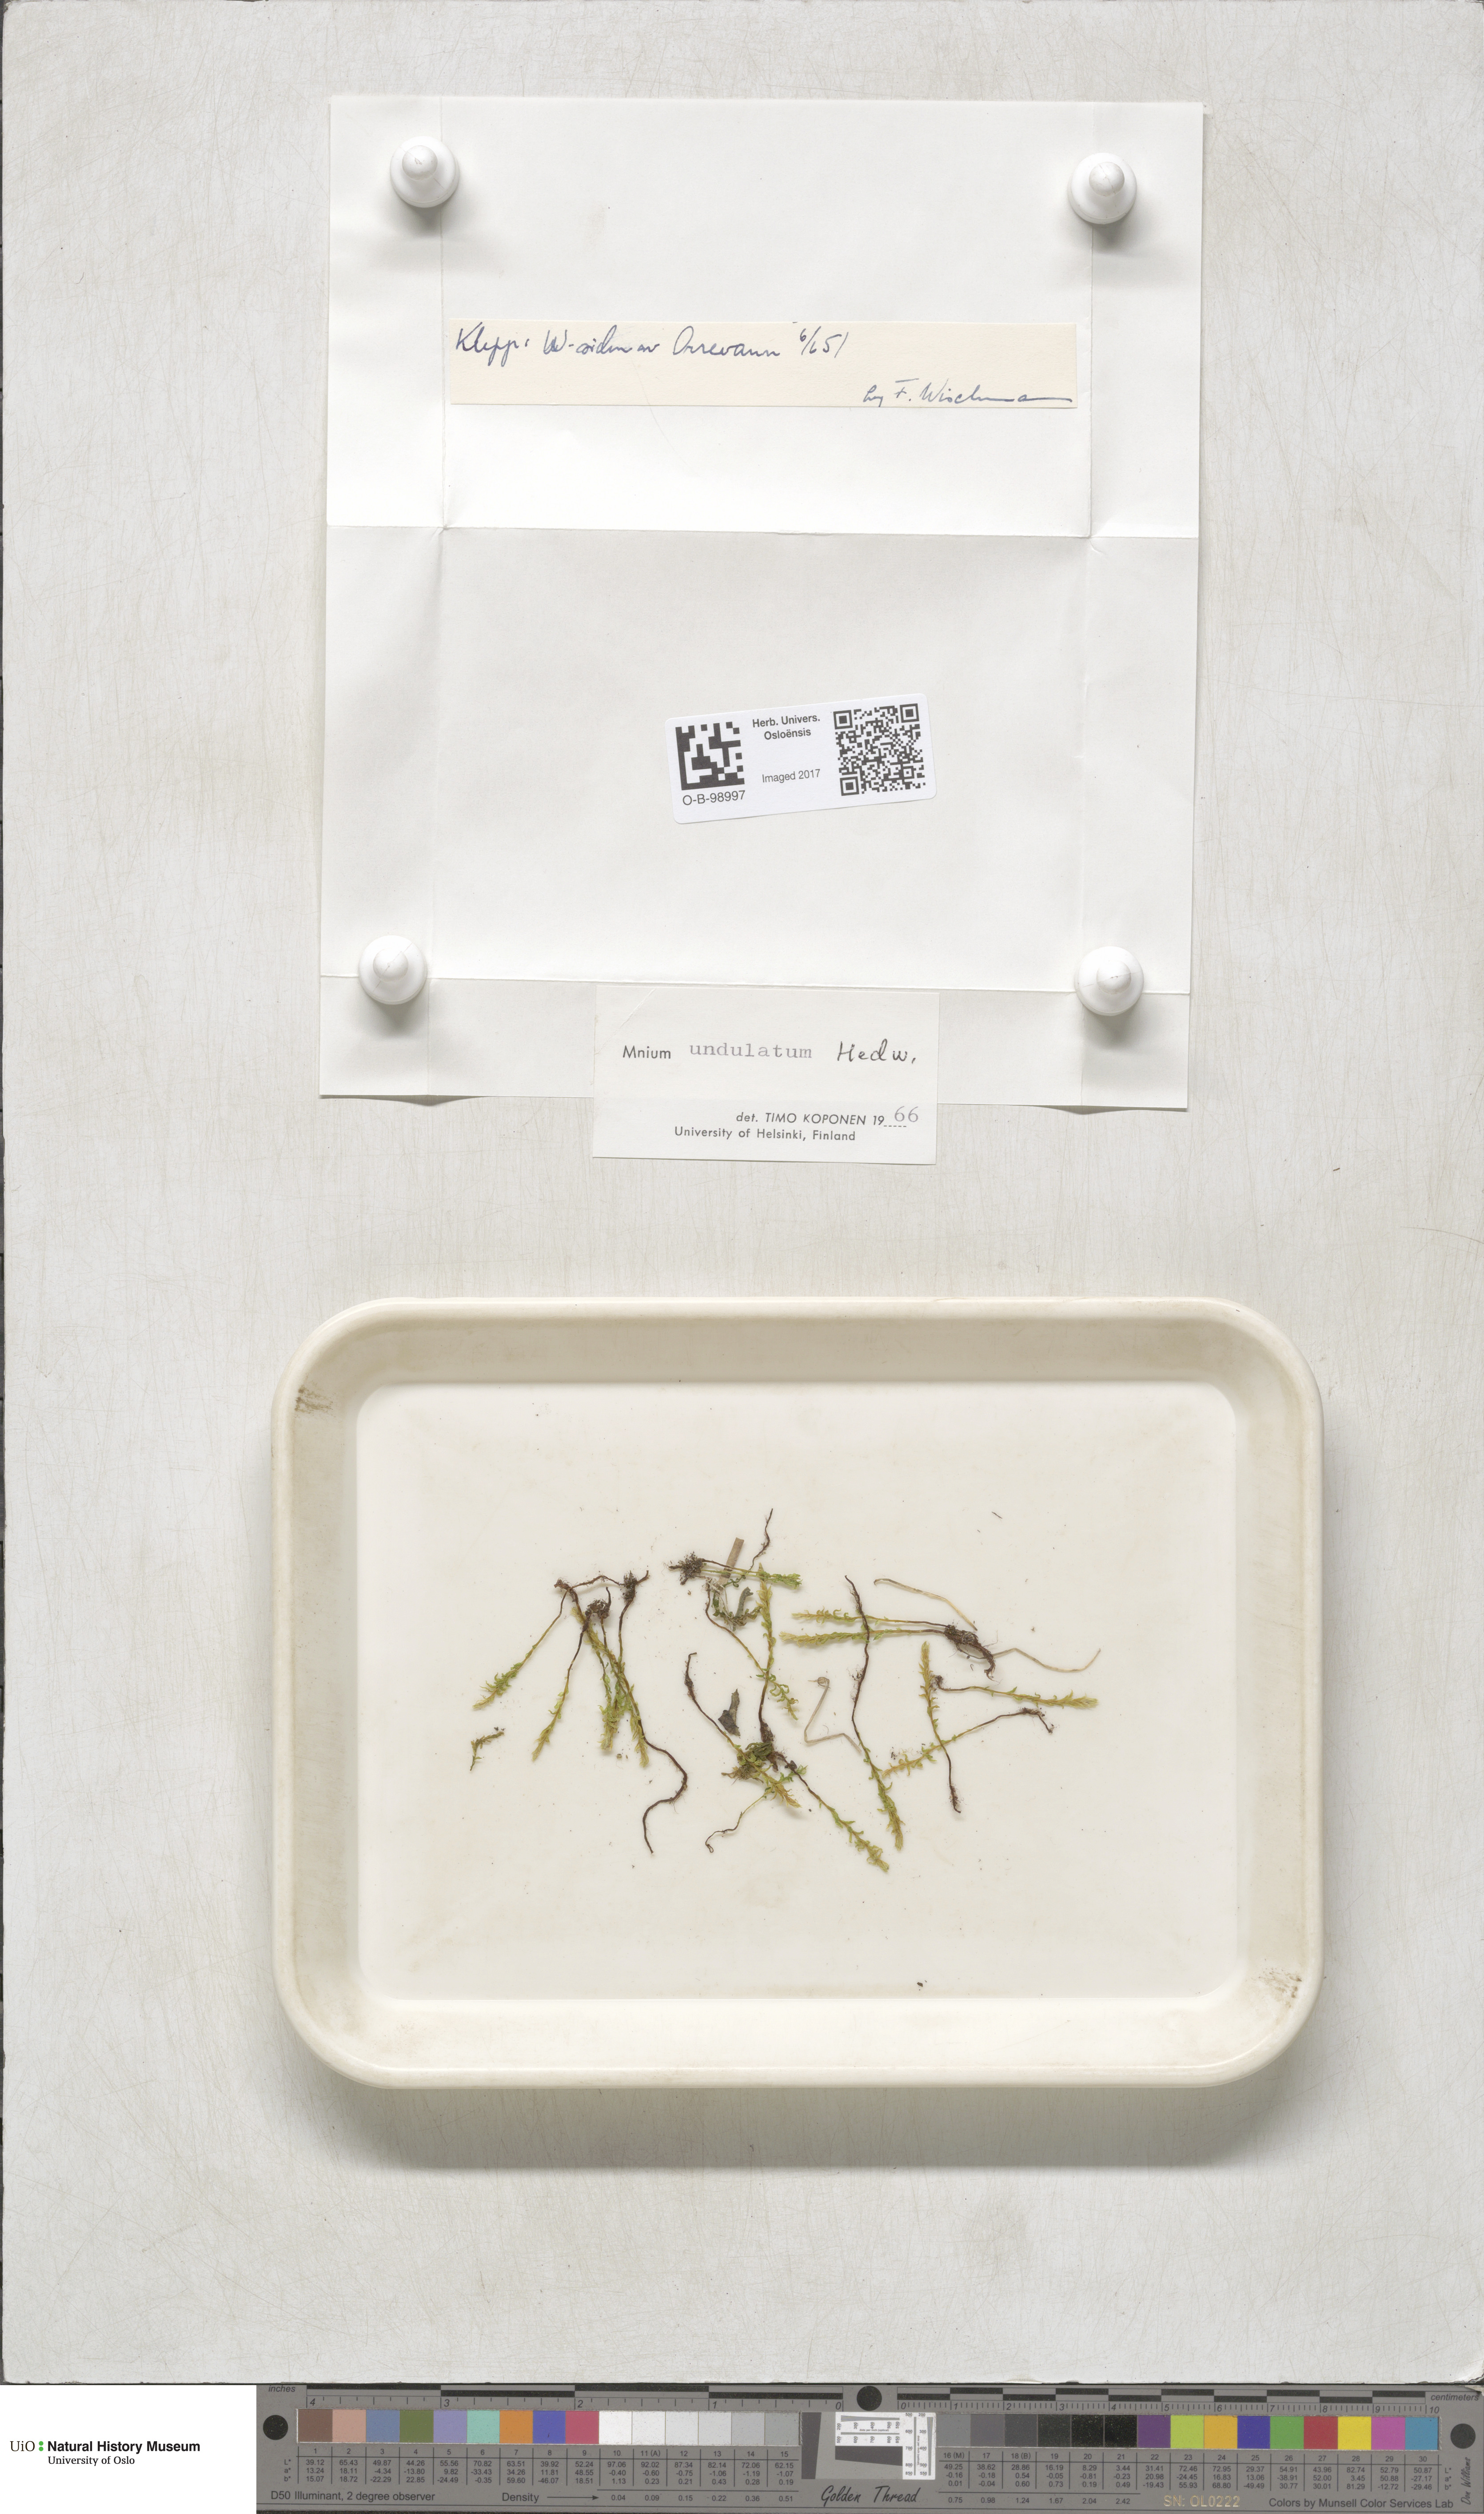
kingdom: Plantae
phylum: Bryophyta
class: Bryopsida
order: Bryales
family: Mniaceae
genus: Plagiomnium
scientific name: Plagiomnium undulatum
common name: Hart's-tongue thyme-moss
